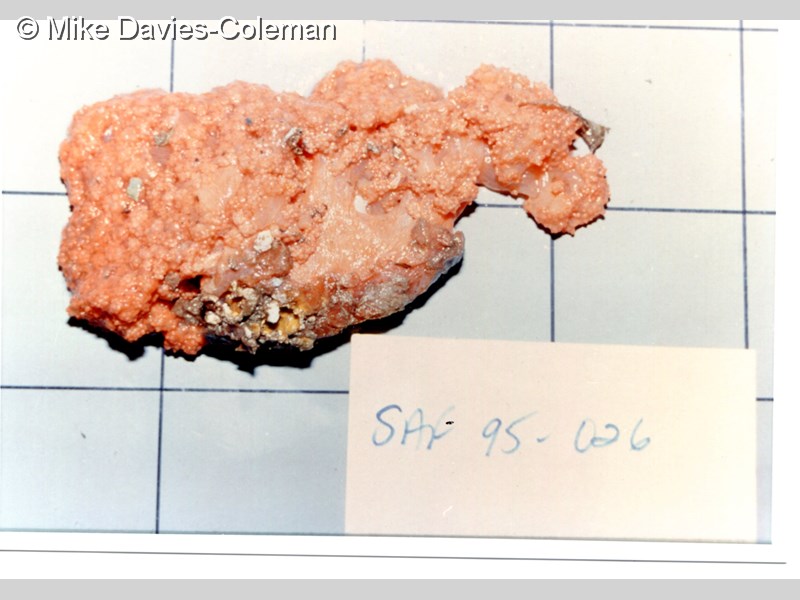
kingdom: Animalia
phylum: Cnidaria
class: Anthozoa
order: Malacalcyonacea
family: Alcyoniidae
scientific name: Alcyoniidae
